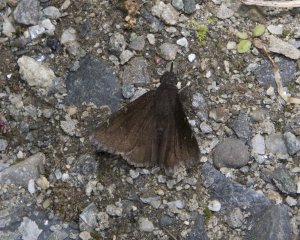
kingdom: Animalia
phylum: Arthropoda
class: Insecta
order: Lepidoptera
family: Hesperiidae
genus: Autochton
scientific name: Autochton
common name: Northern Cloudywing
